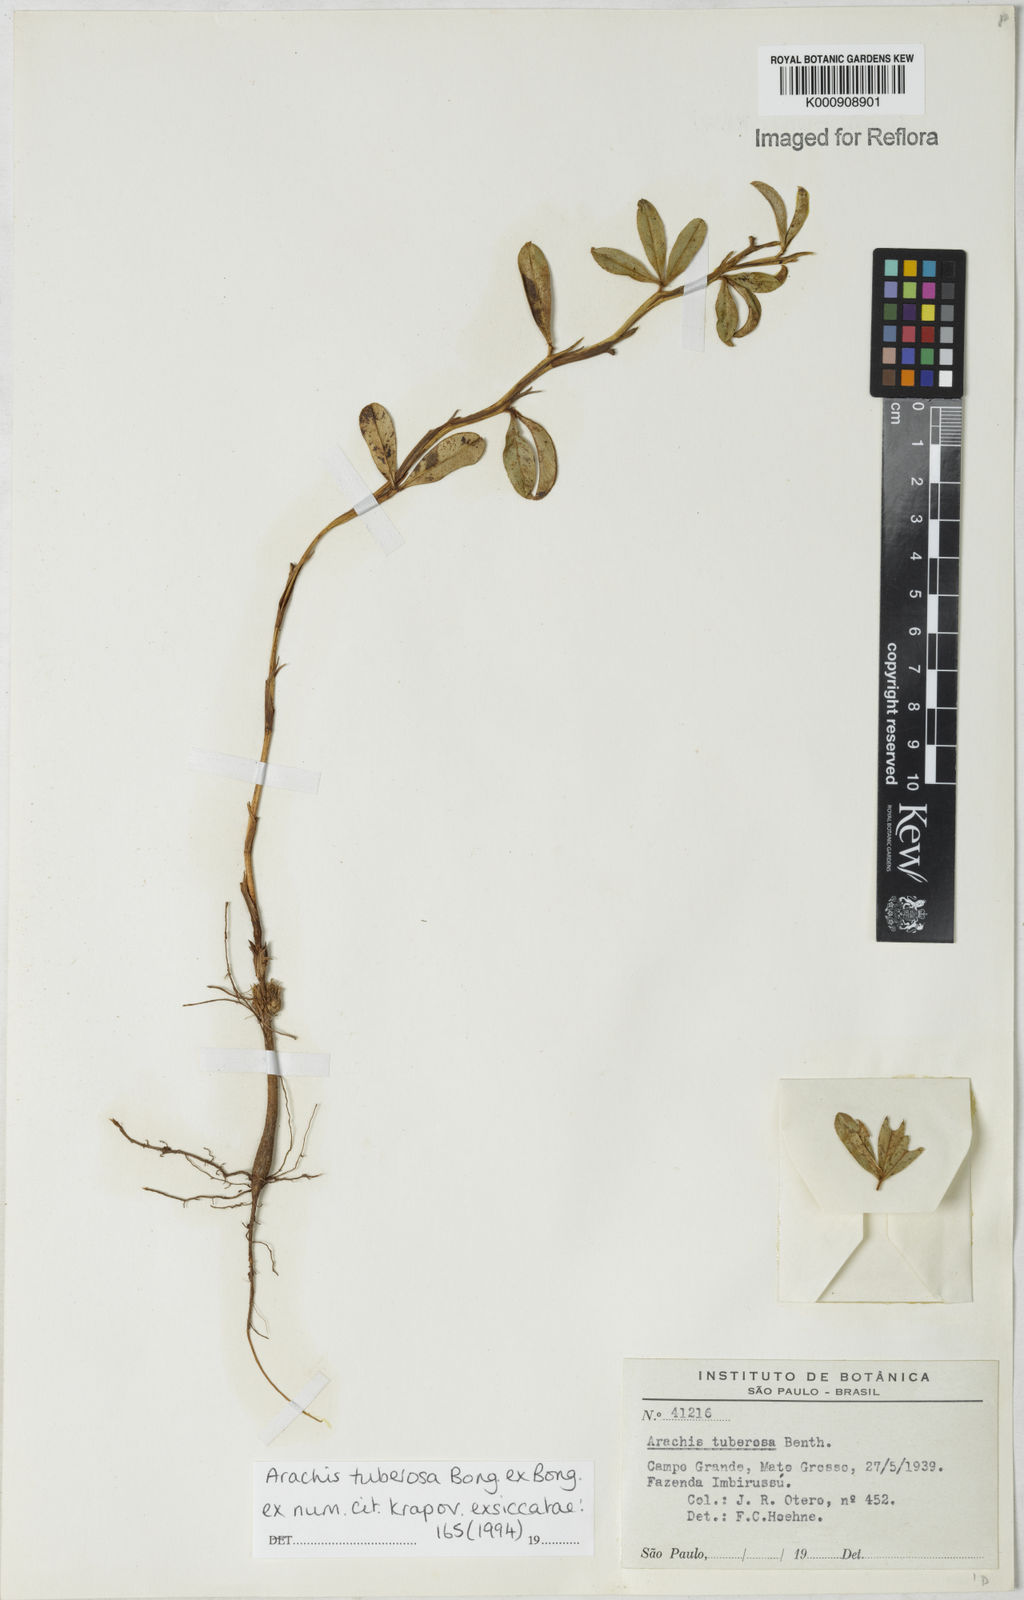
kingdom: Plantae
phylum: Tracheophyta
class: Magnoliopsida
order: Fabales
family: Fabaceae
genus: Arachis
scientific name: Arachis tuberosa
